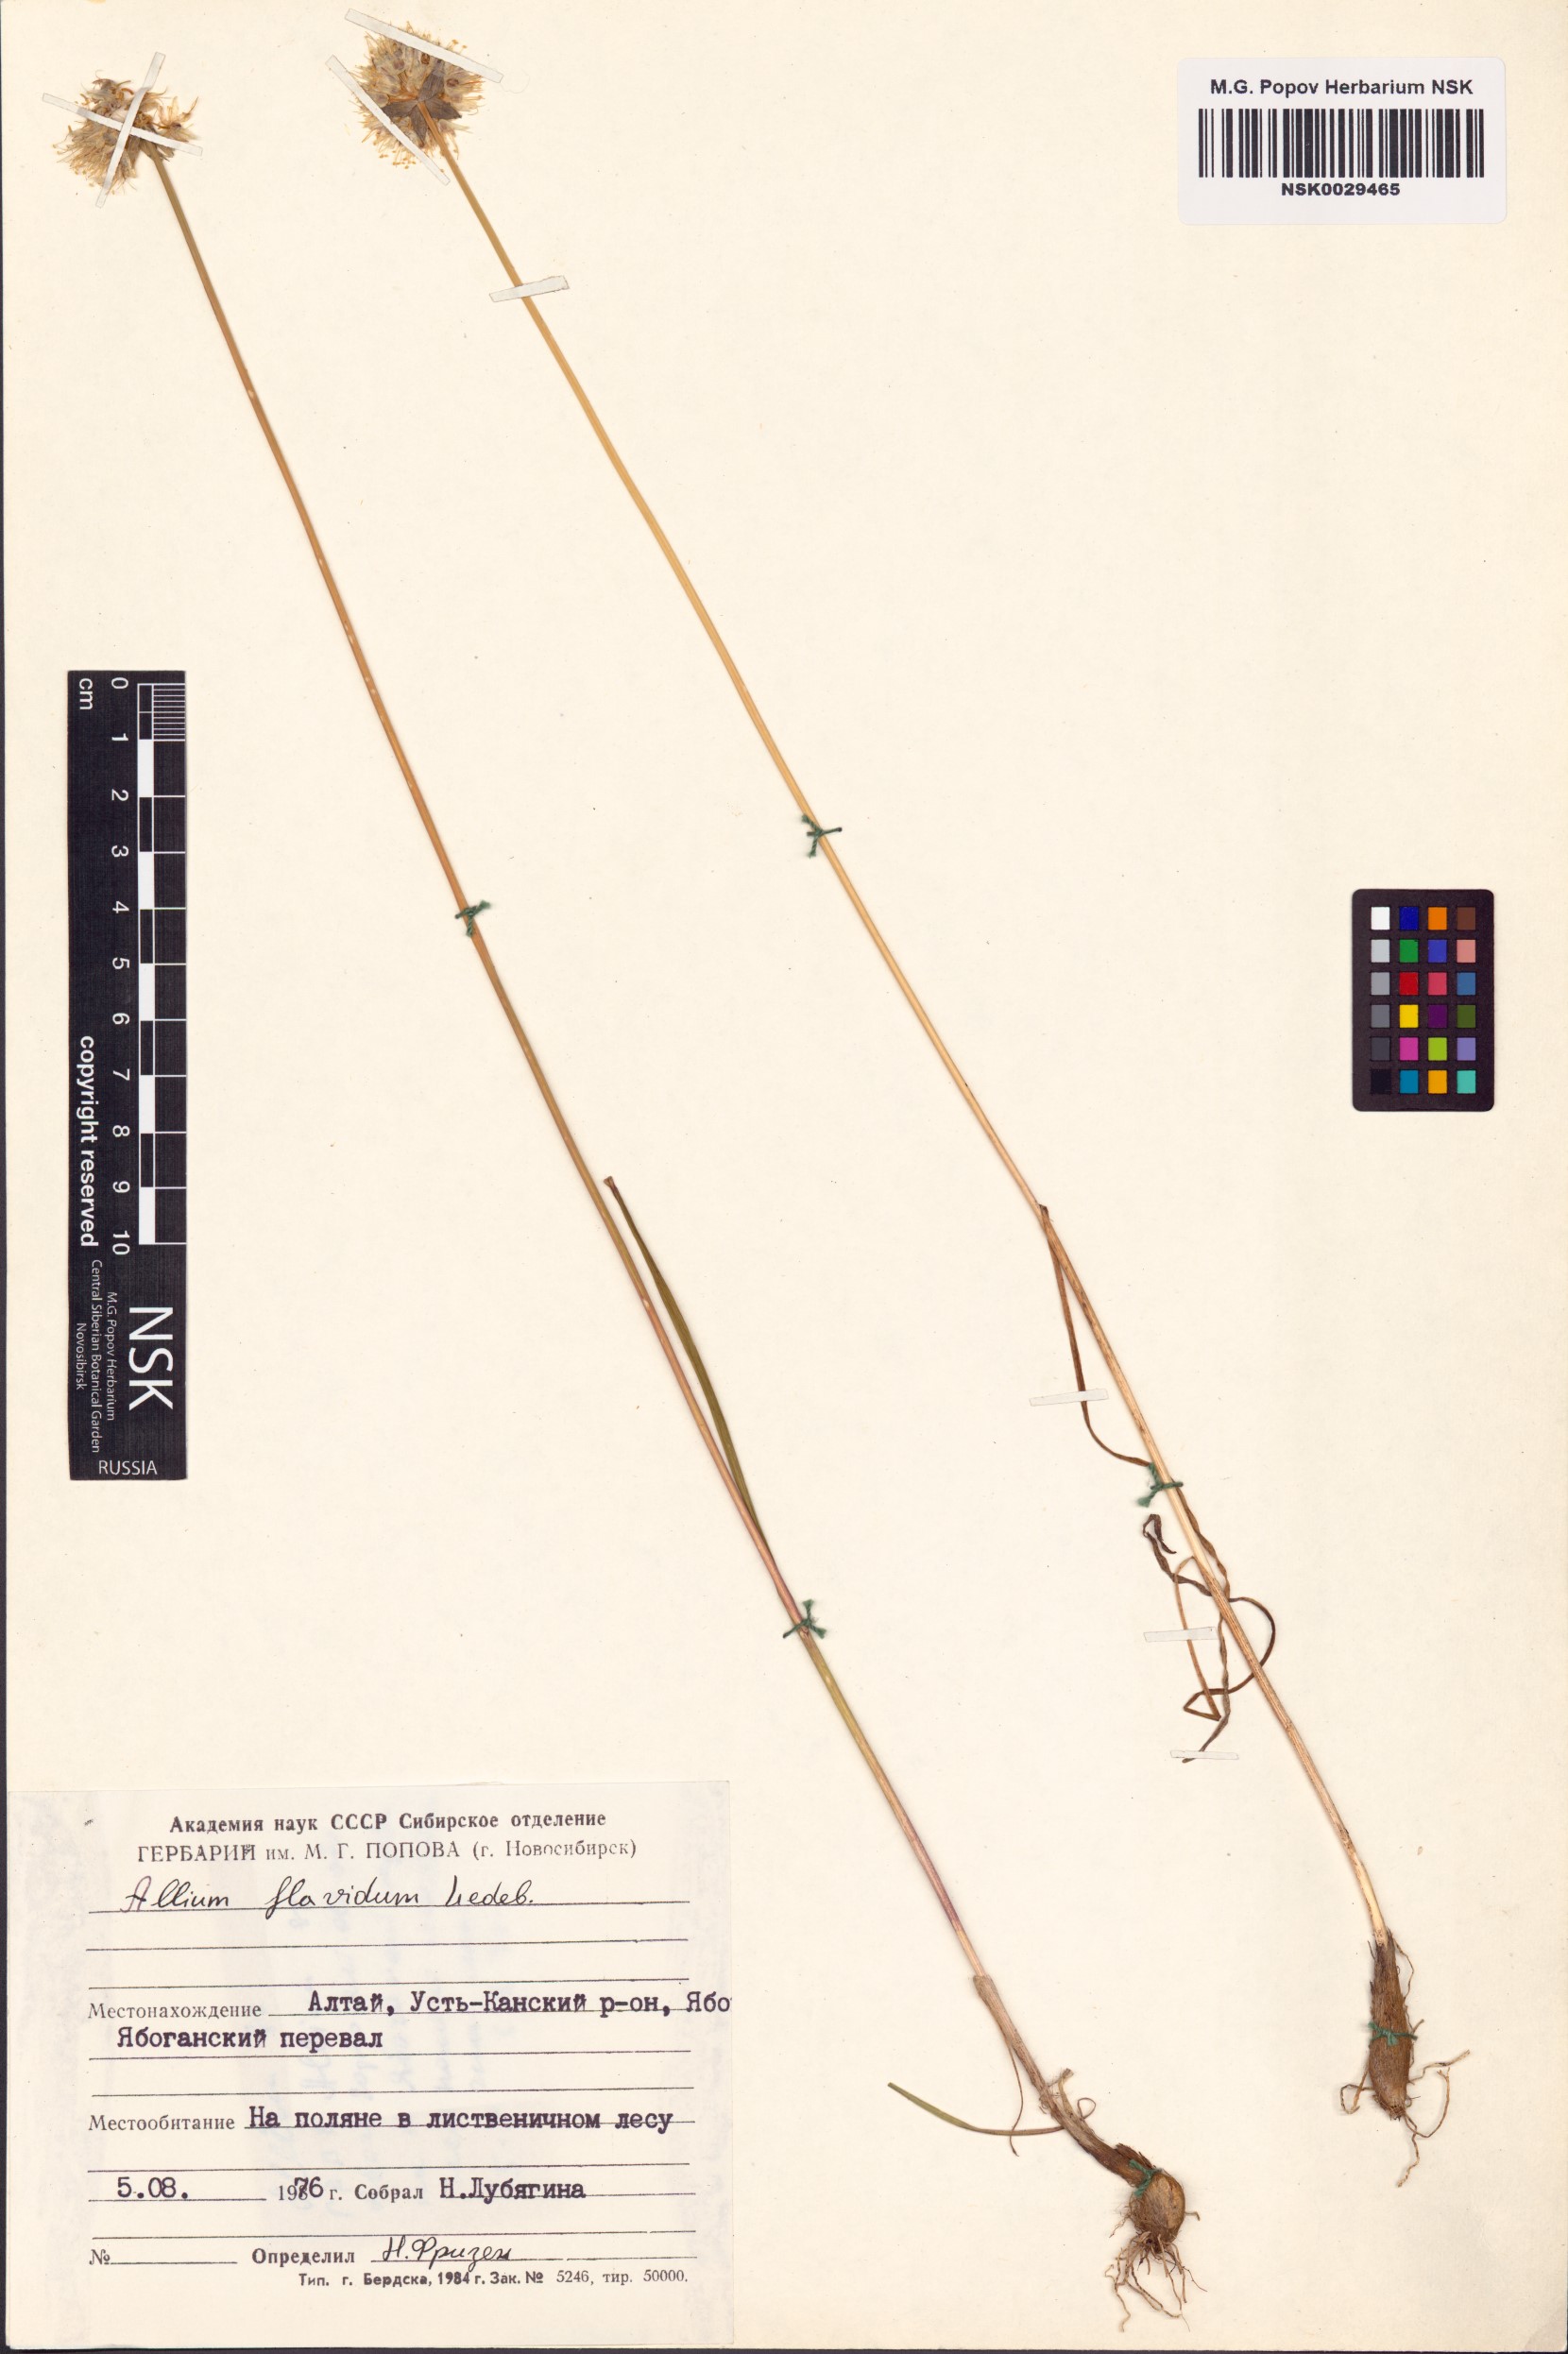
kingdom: Plantae
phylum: Tracheophyta
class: Liliopsida
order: Asparagales
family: Amaryllidaceae
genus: Allium
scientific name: Allium flavidum
